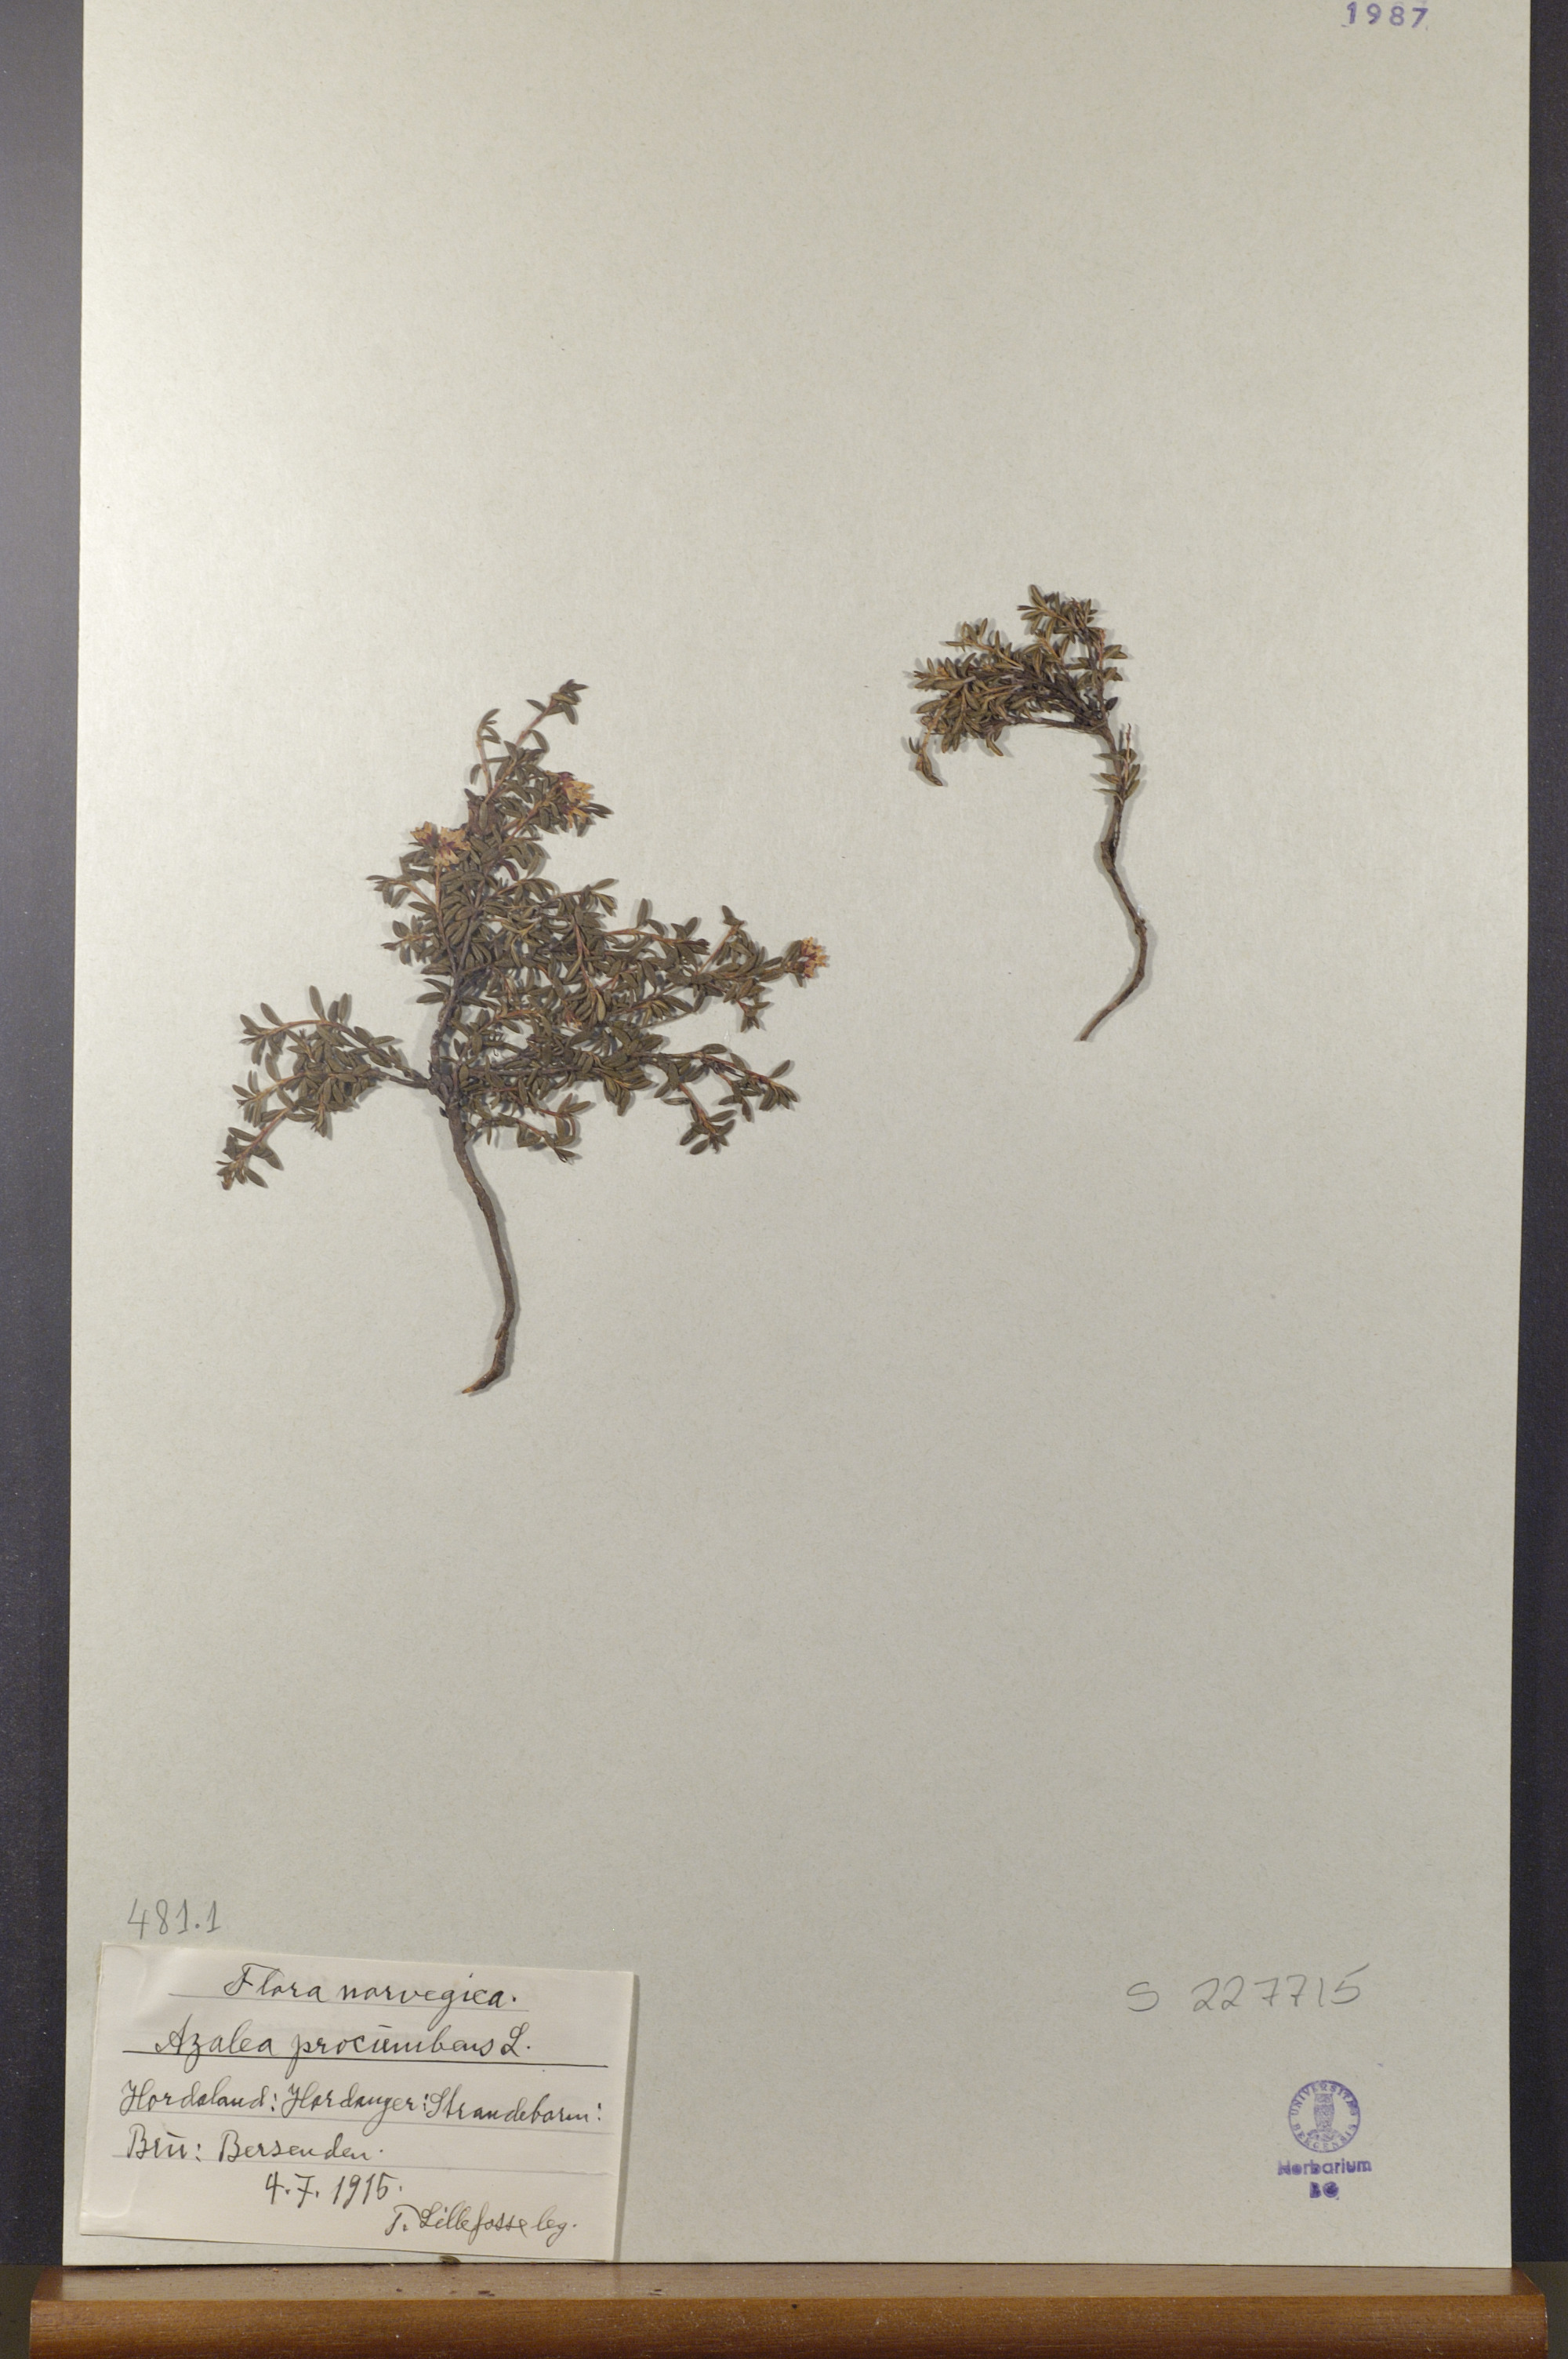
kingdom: Plantae
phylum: Tracheophyta
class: Magnoliopsida
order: Ericales
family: Ericaceae
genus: Kalmia
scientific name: Kalmia procumbens
